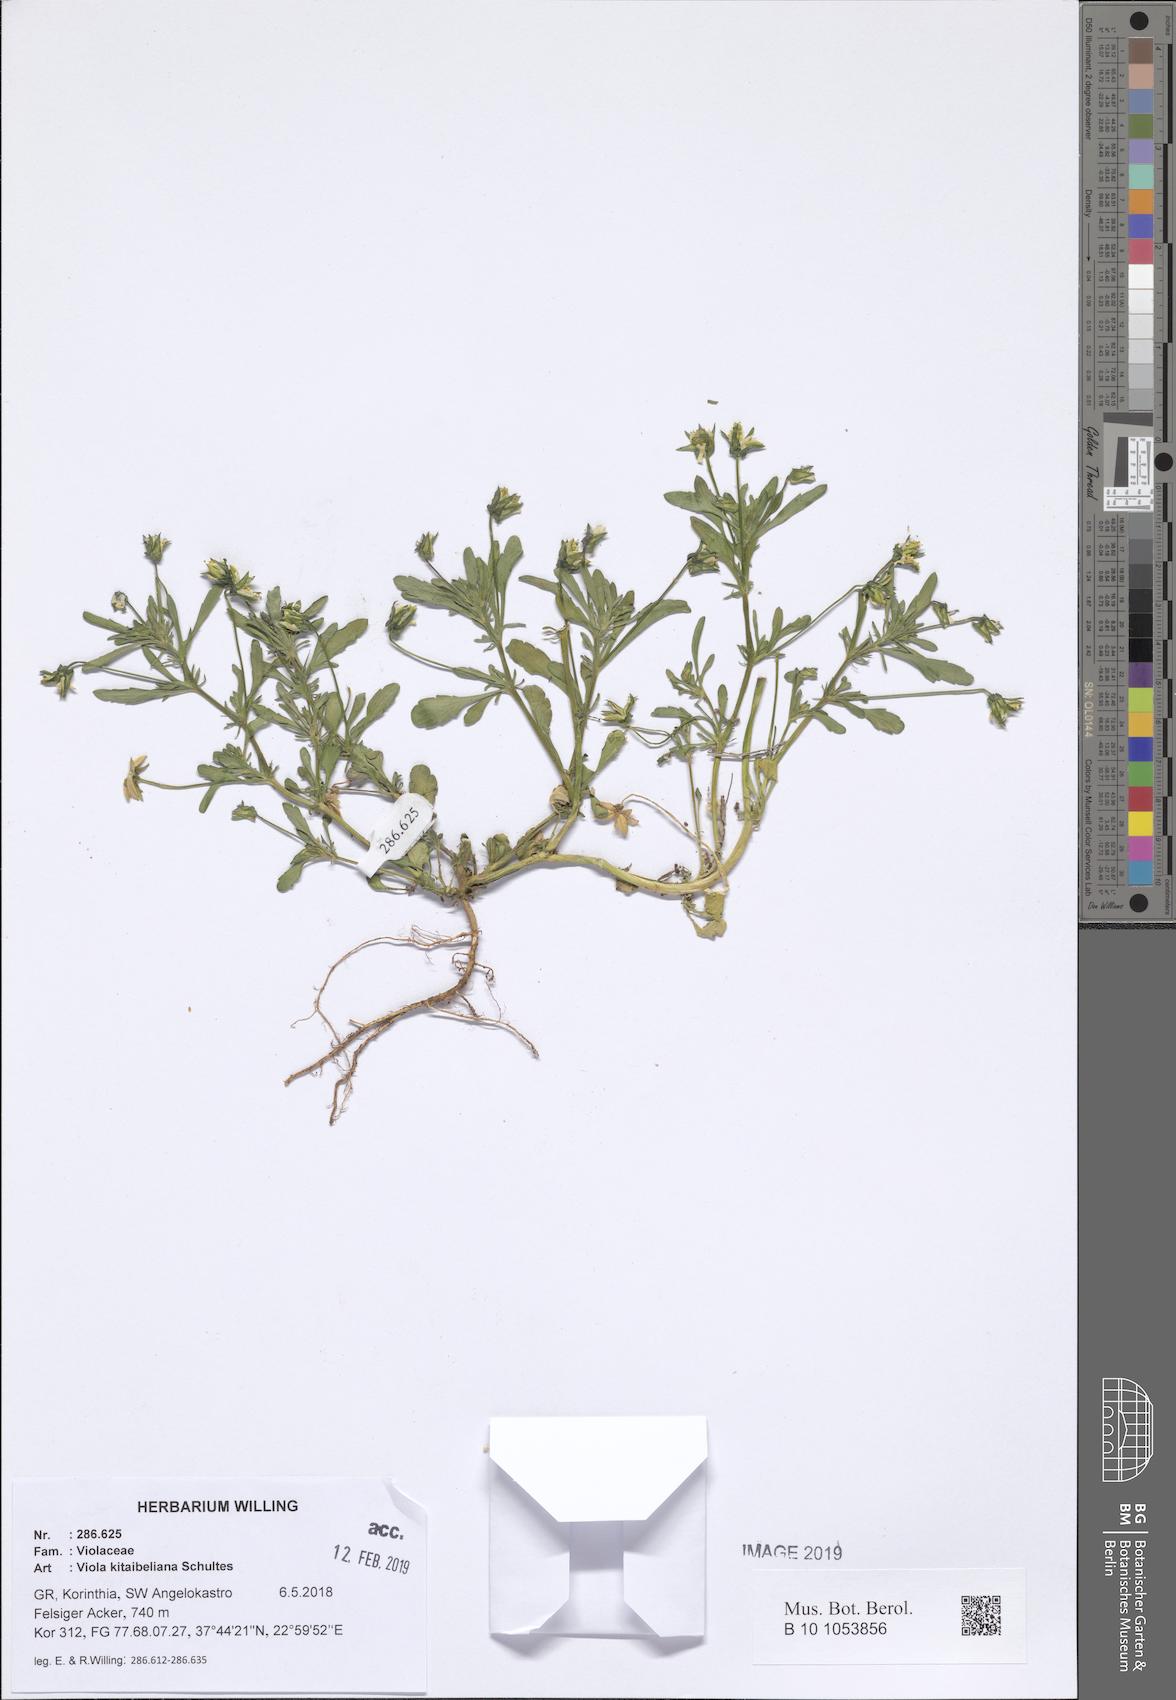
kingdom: Plantae
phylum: Tracheophyta
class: Magnoliopsida
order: Malpighiales
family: Violaceae
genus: Viola
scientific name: Viola kitaibeliana
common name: Dwarf pansy
